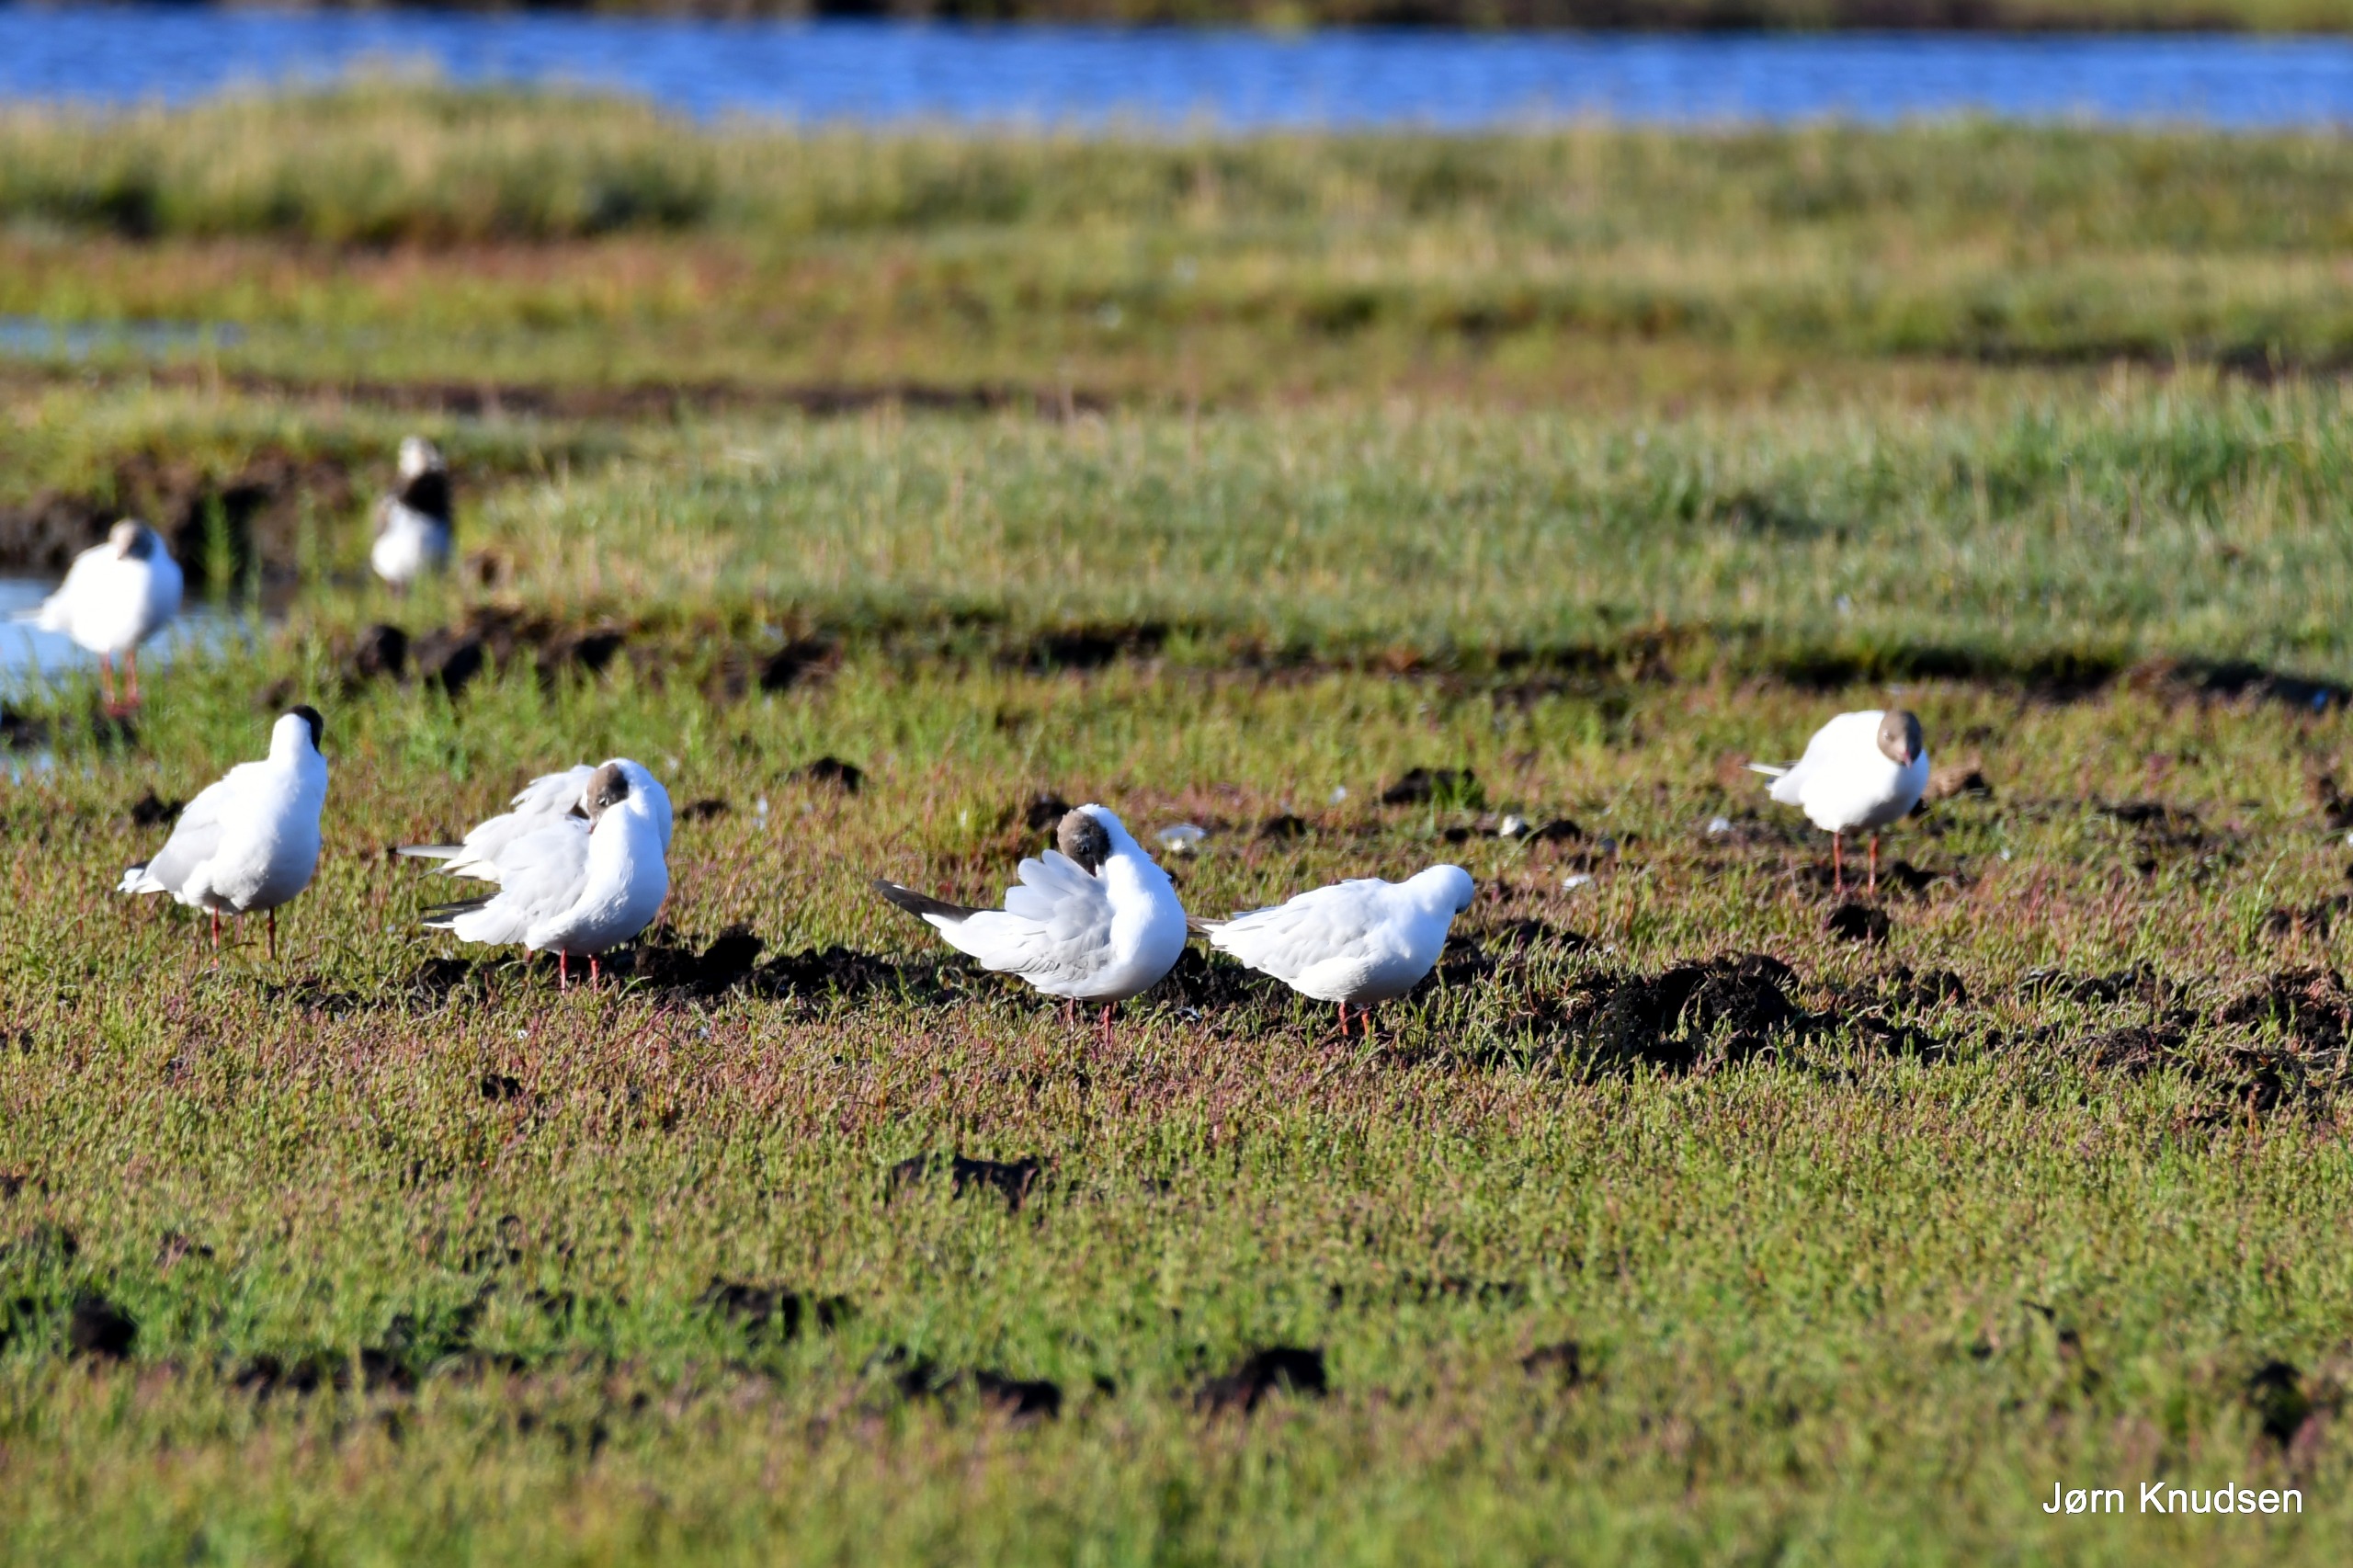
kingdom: Animalia
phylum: Chordata
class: Aves
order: Charadriiformes
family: Laridae
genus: Chroicocephalus
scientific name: Chroicocephalus ridibundus
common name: Hættemåge
